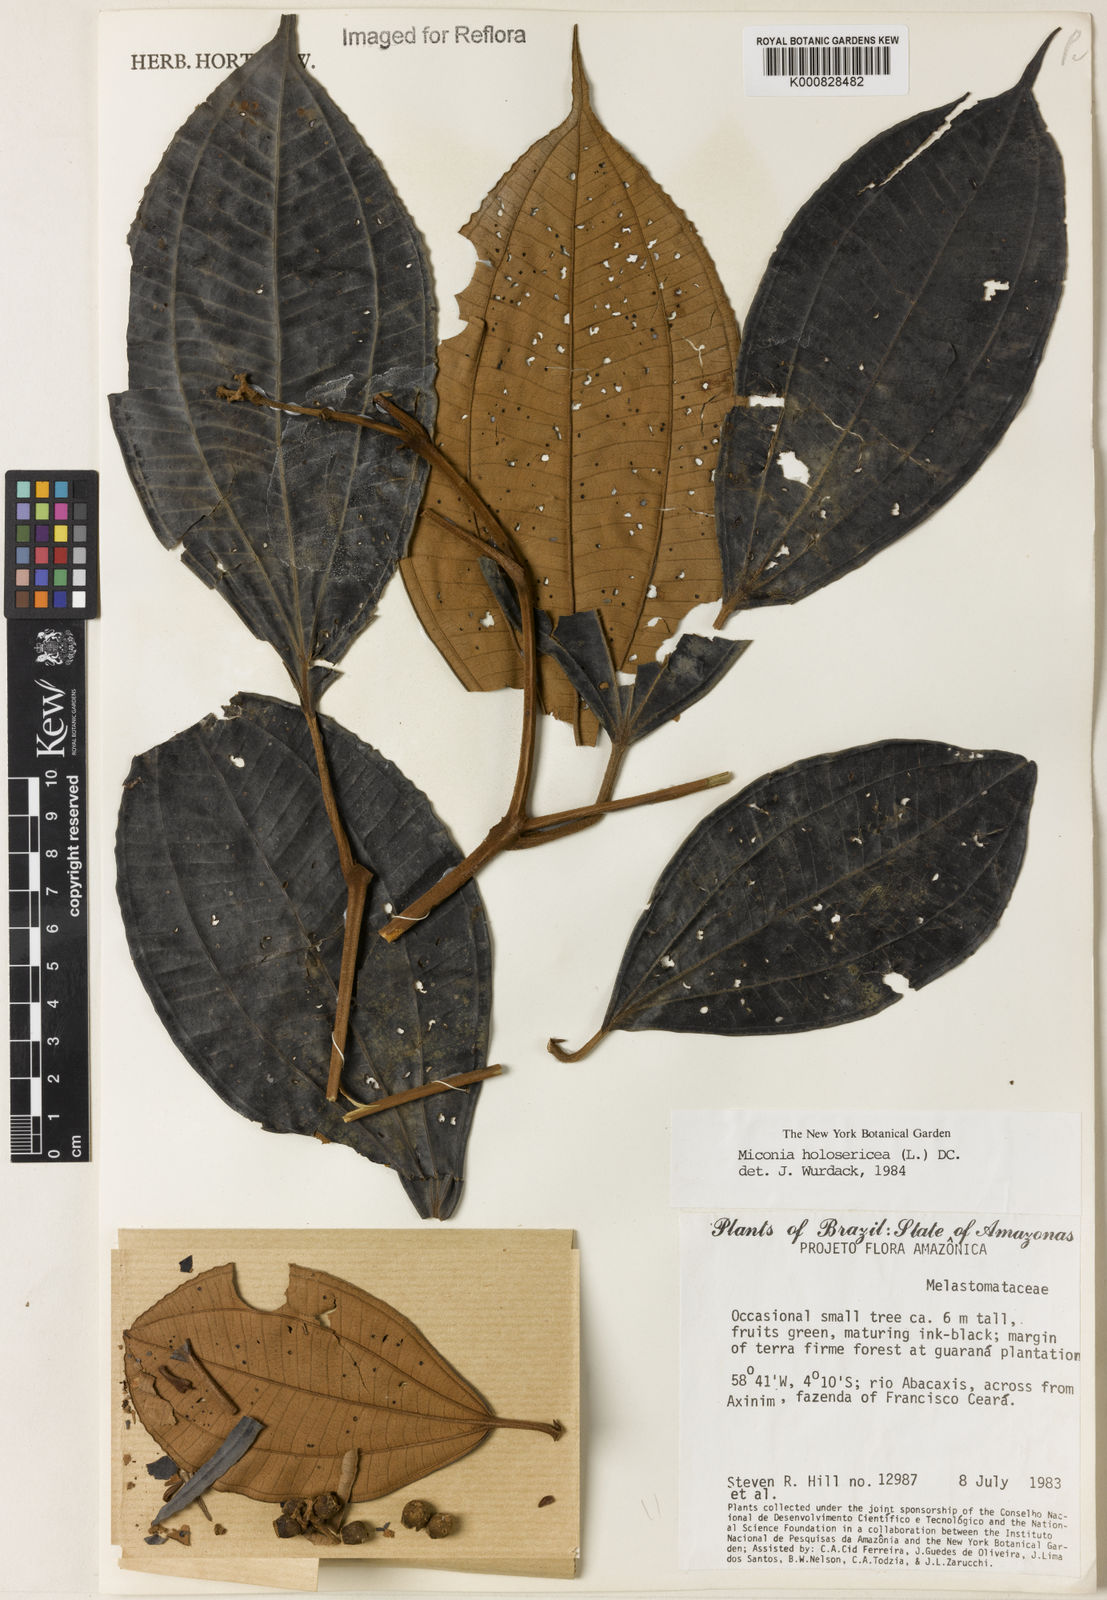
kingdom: Plantae
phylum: Tracheophyta
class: Magnoliopsida
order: Myrtales
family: Melastomataceae
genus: Miconia
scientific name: Miconia holosericea
